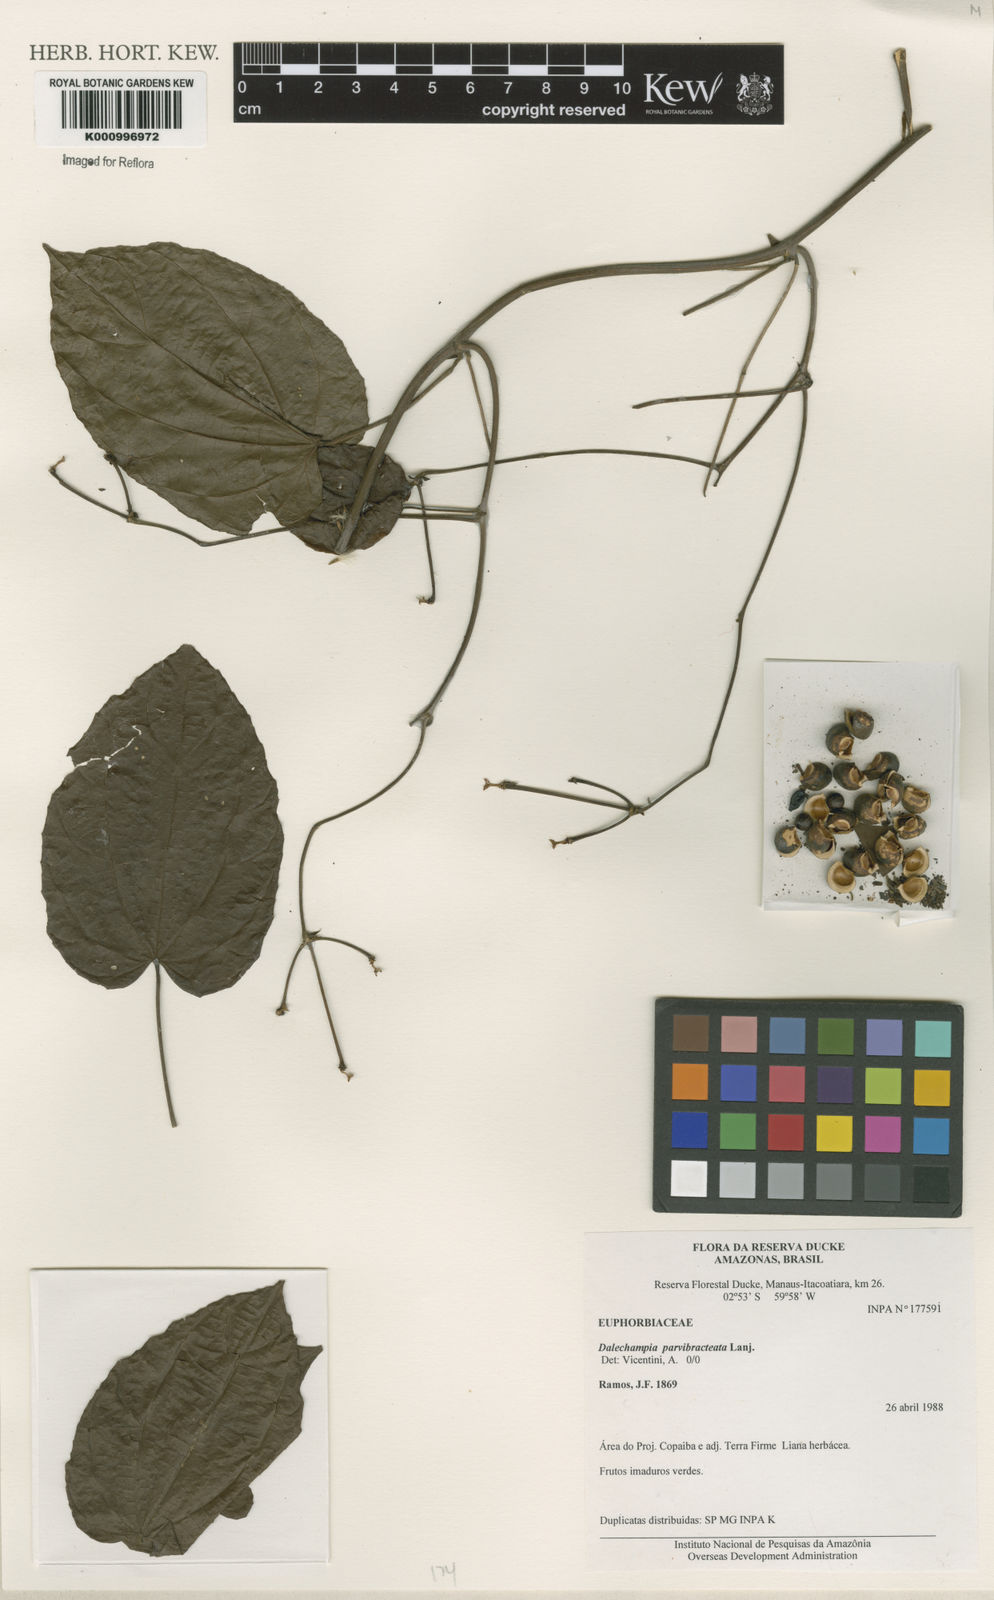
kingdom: Plantae
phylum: Tracheophyta
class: Magnoliopsida
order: Malpighiales
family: Euphorbiaceae
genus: Dalechampia
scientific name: Dalechampia parvibracteata
